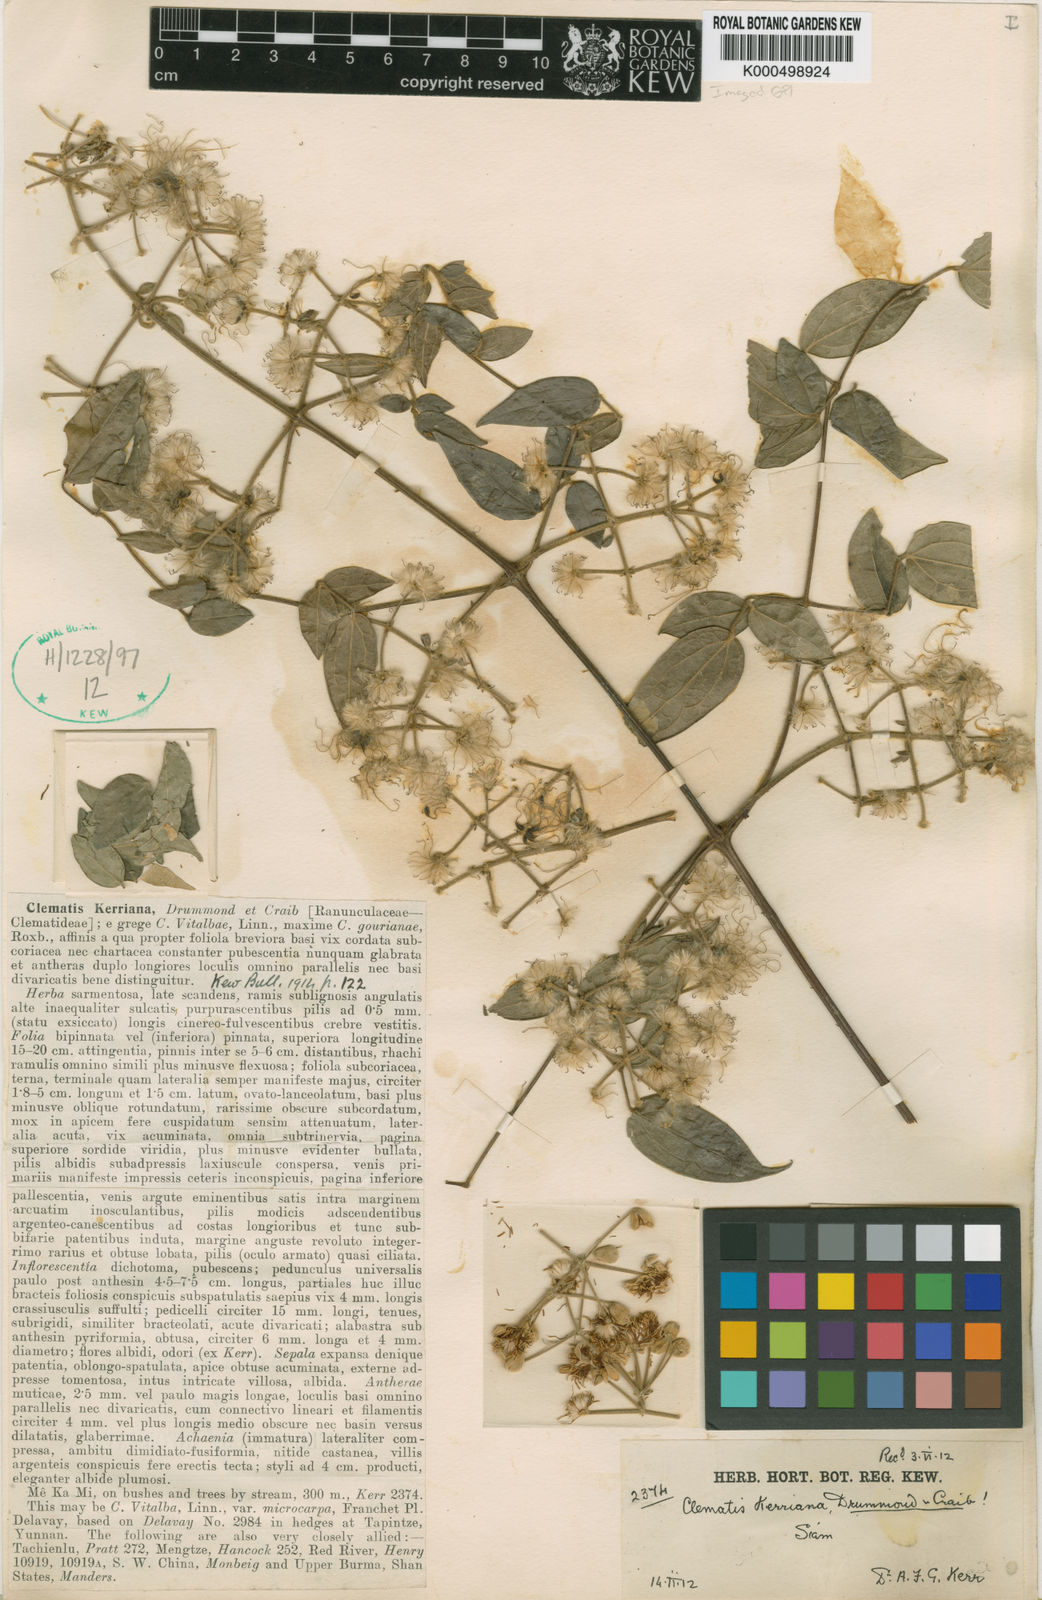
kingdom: Plantae
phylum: Tracheophyta
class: Magnoliopsida
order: Ranunculales
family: Ranunculaceae
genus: Clematis
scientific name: Clematis subumbellata
